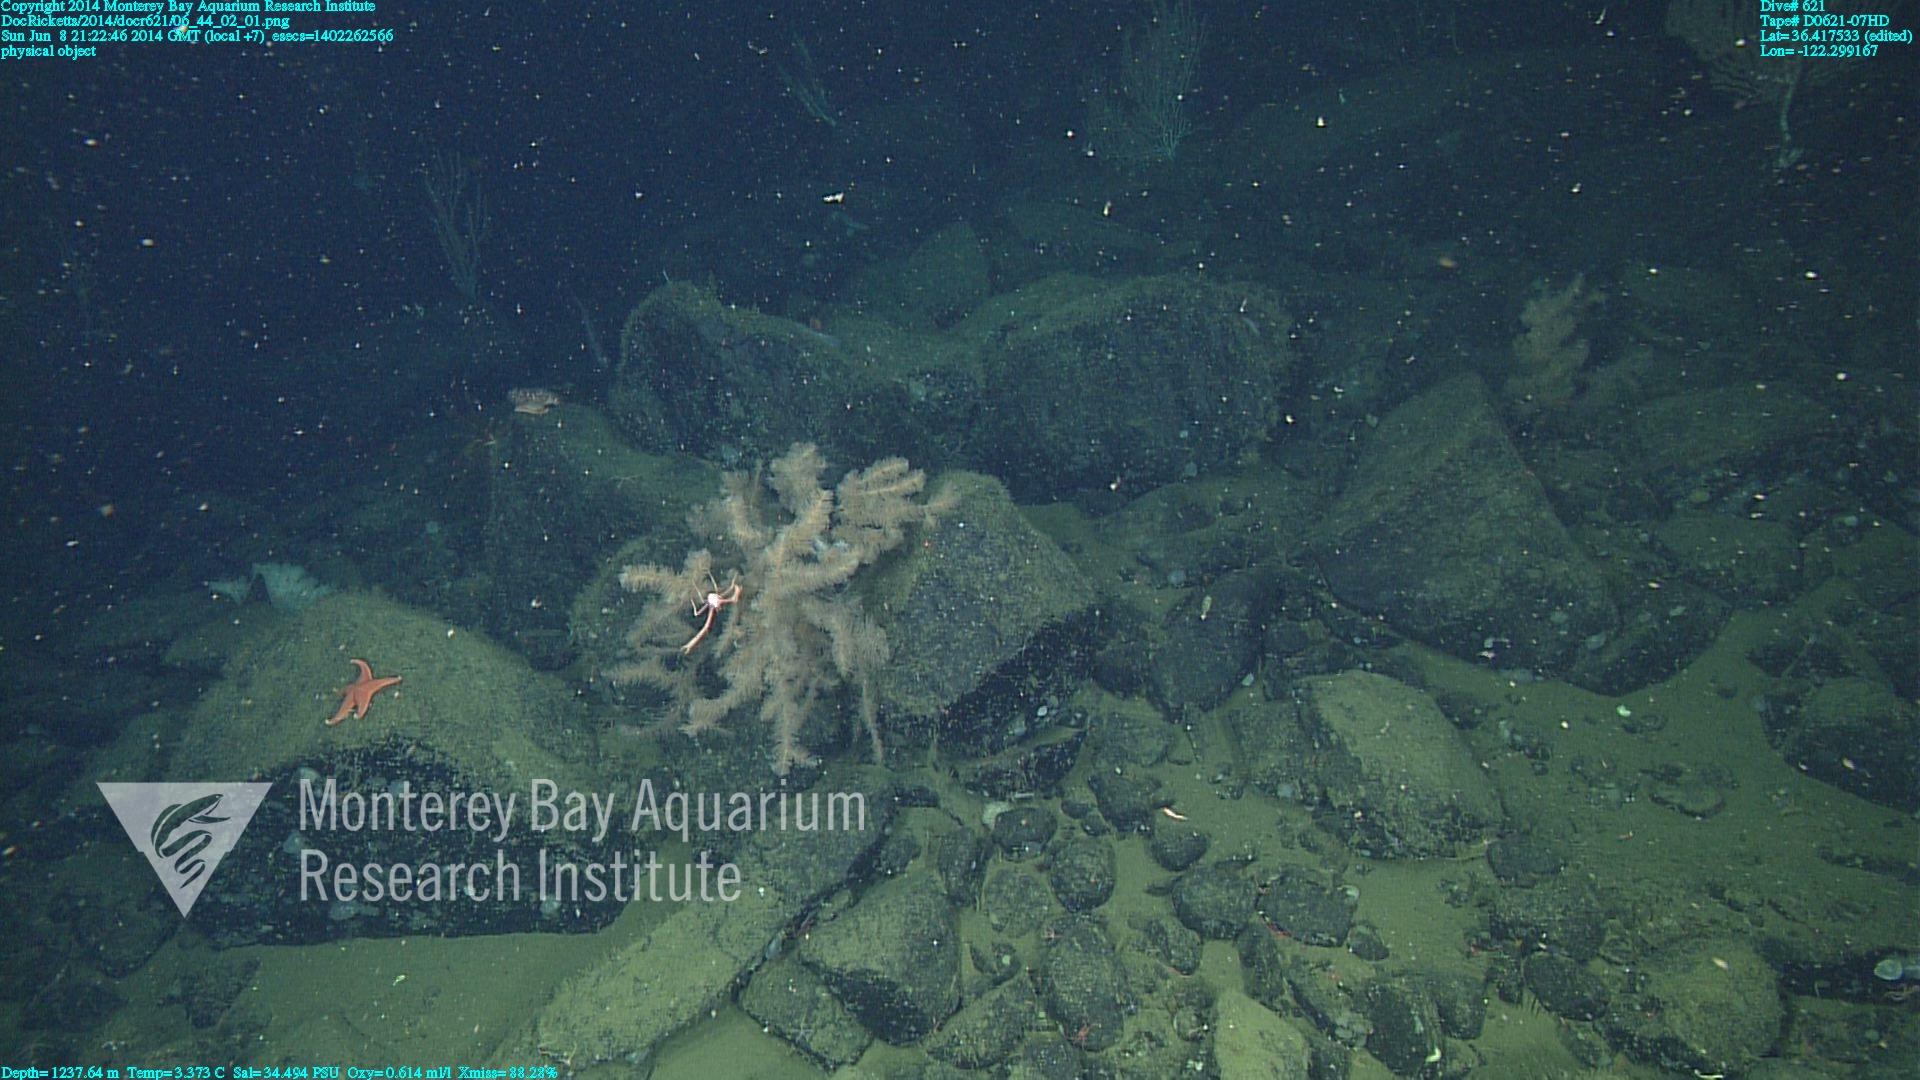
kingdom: Animalia
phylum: Cnidaria
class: Anthozoa
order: Antipatharia
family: Schizopathidae
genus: Lillipathes
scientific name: Lillipathes
